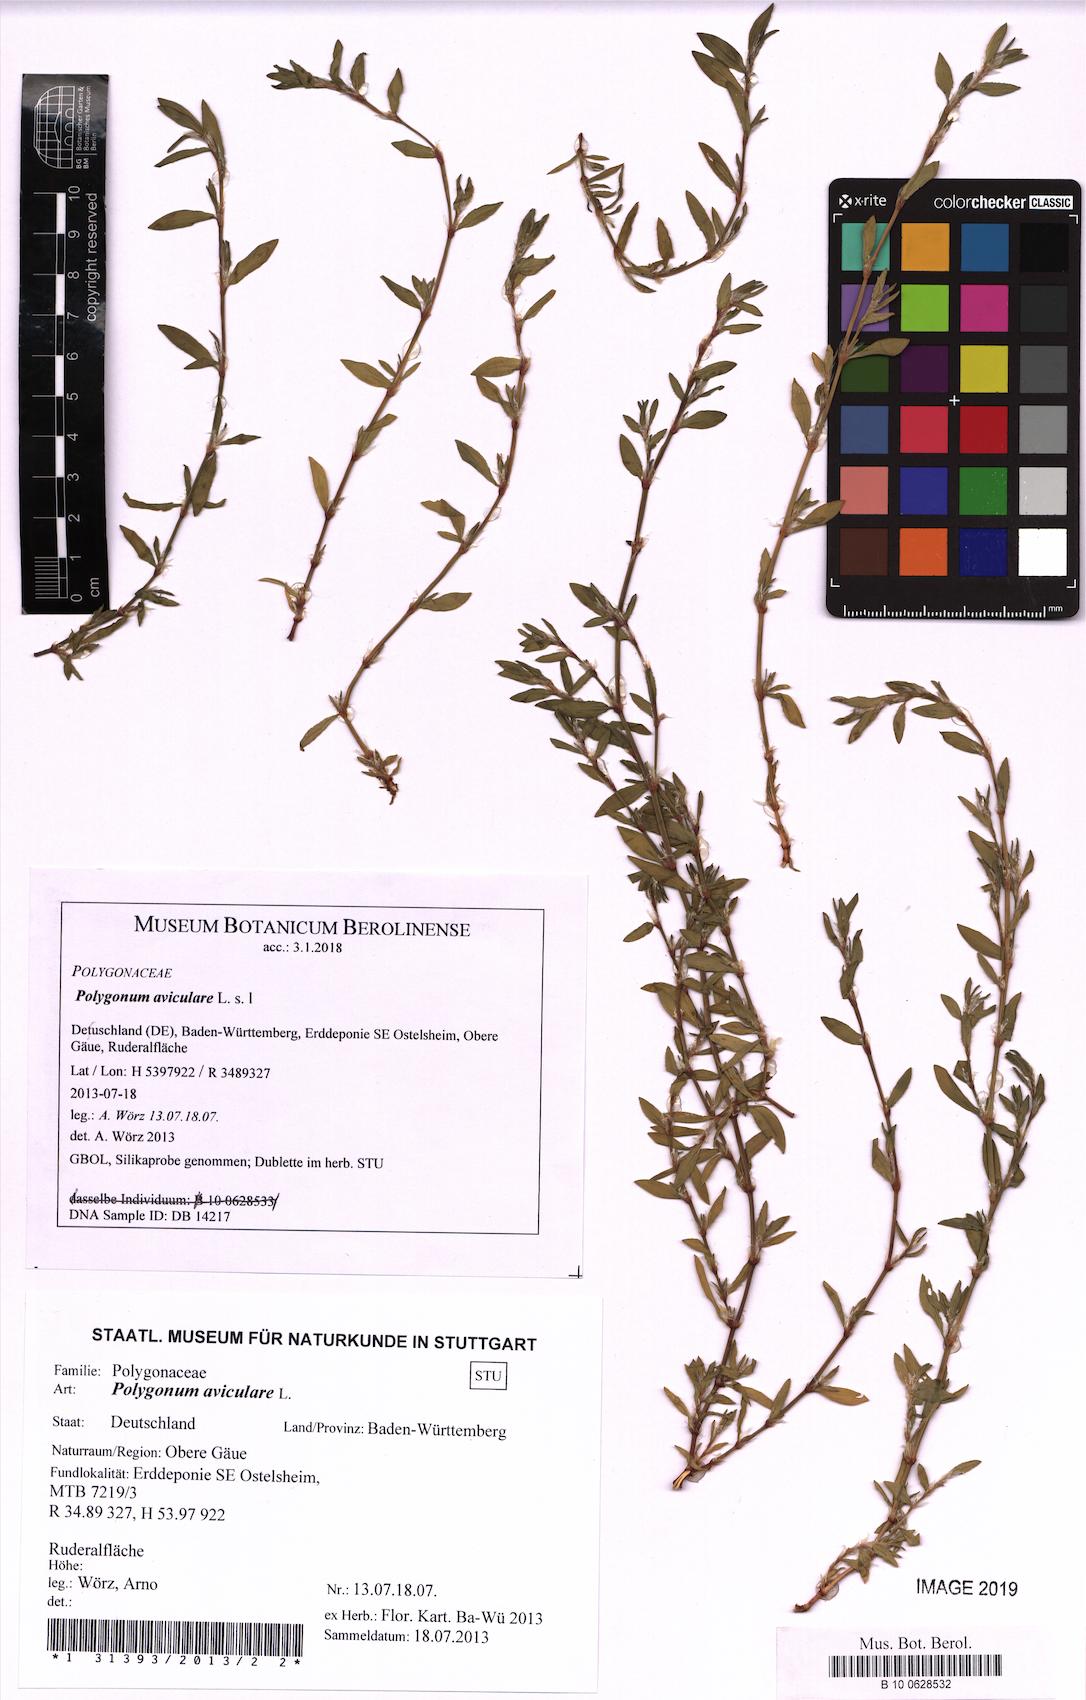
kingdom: Plantae
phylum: Tracheophyta
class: Magnoliopsida
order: Caryophyllales
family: Polygonaceae
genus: Polygonum
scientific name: Polygonum aviculare
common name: Prostrate knotweed
